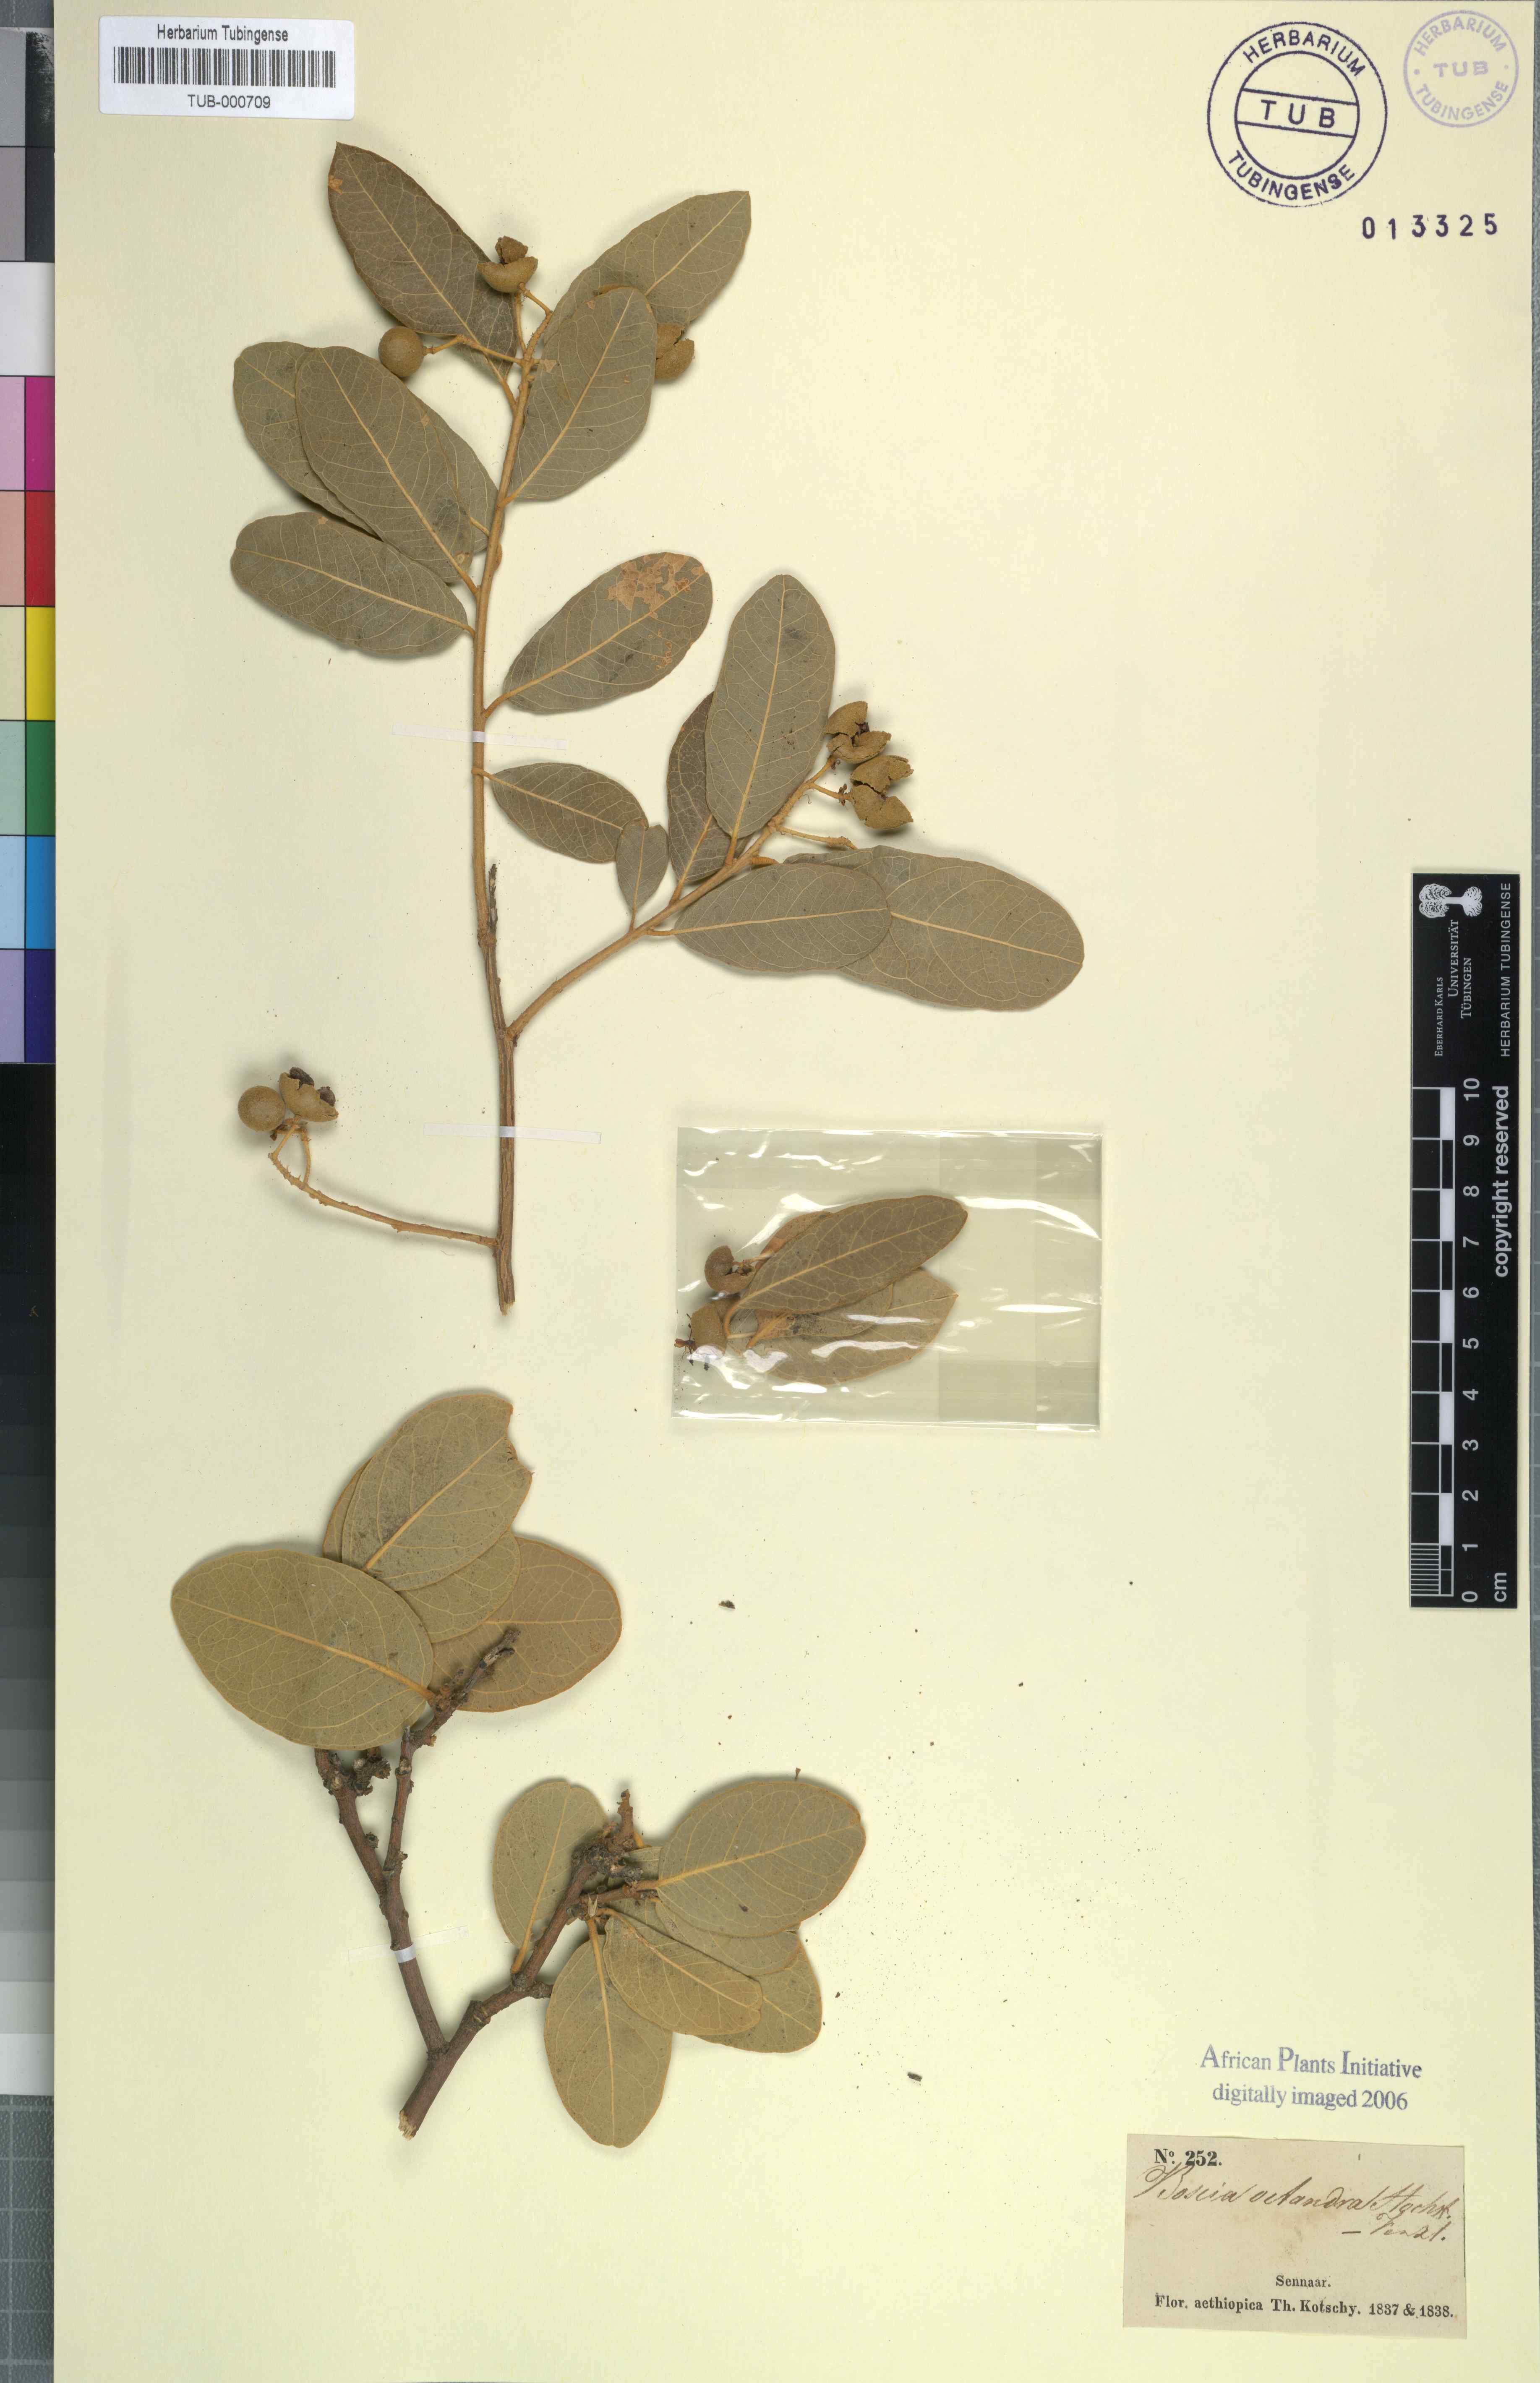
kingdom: Plantae
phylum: Tracheophyta
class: Magnoliopsida
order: Brassicales
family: Capparaceae
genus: Boscia
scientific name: Boscia senegalensis
